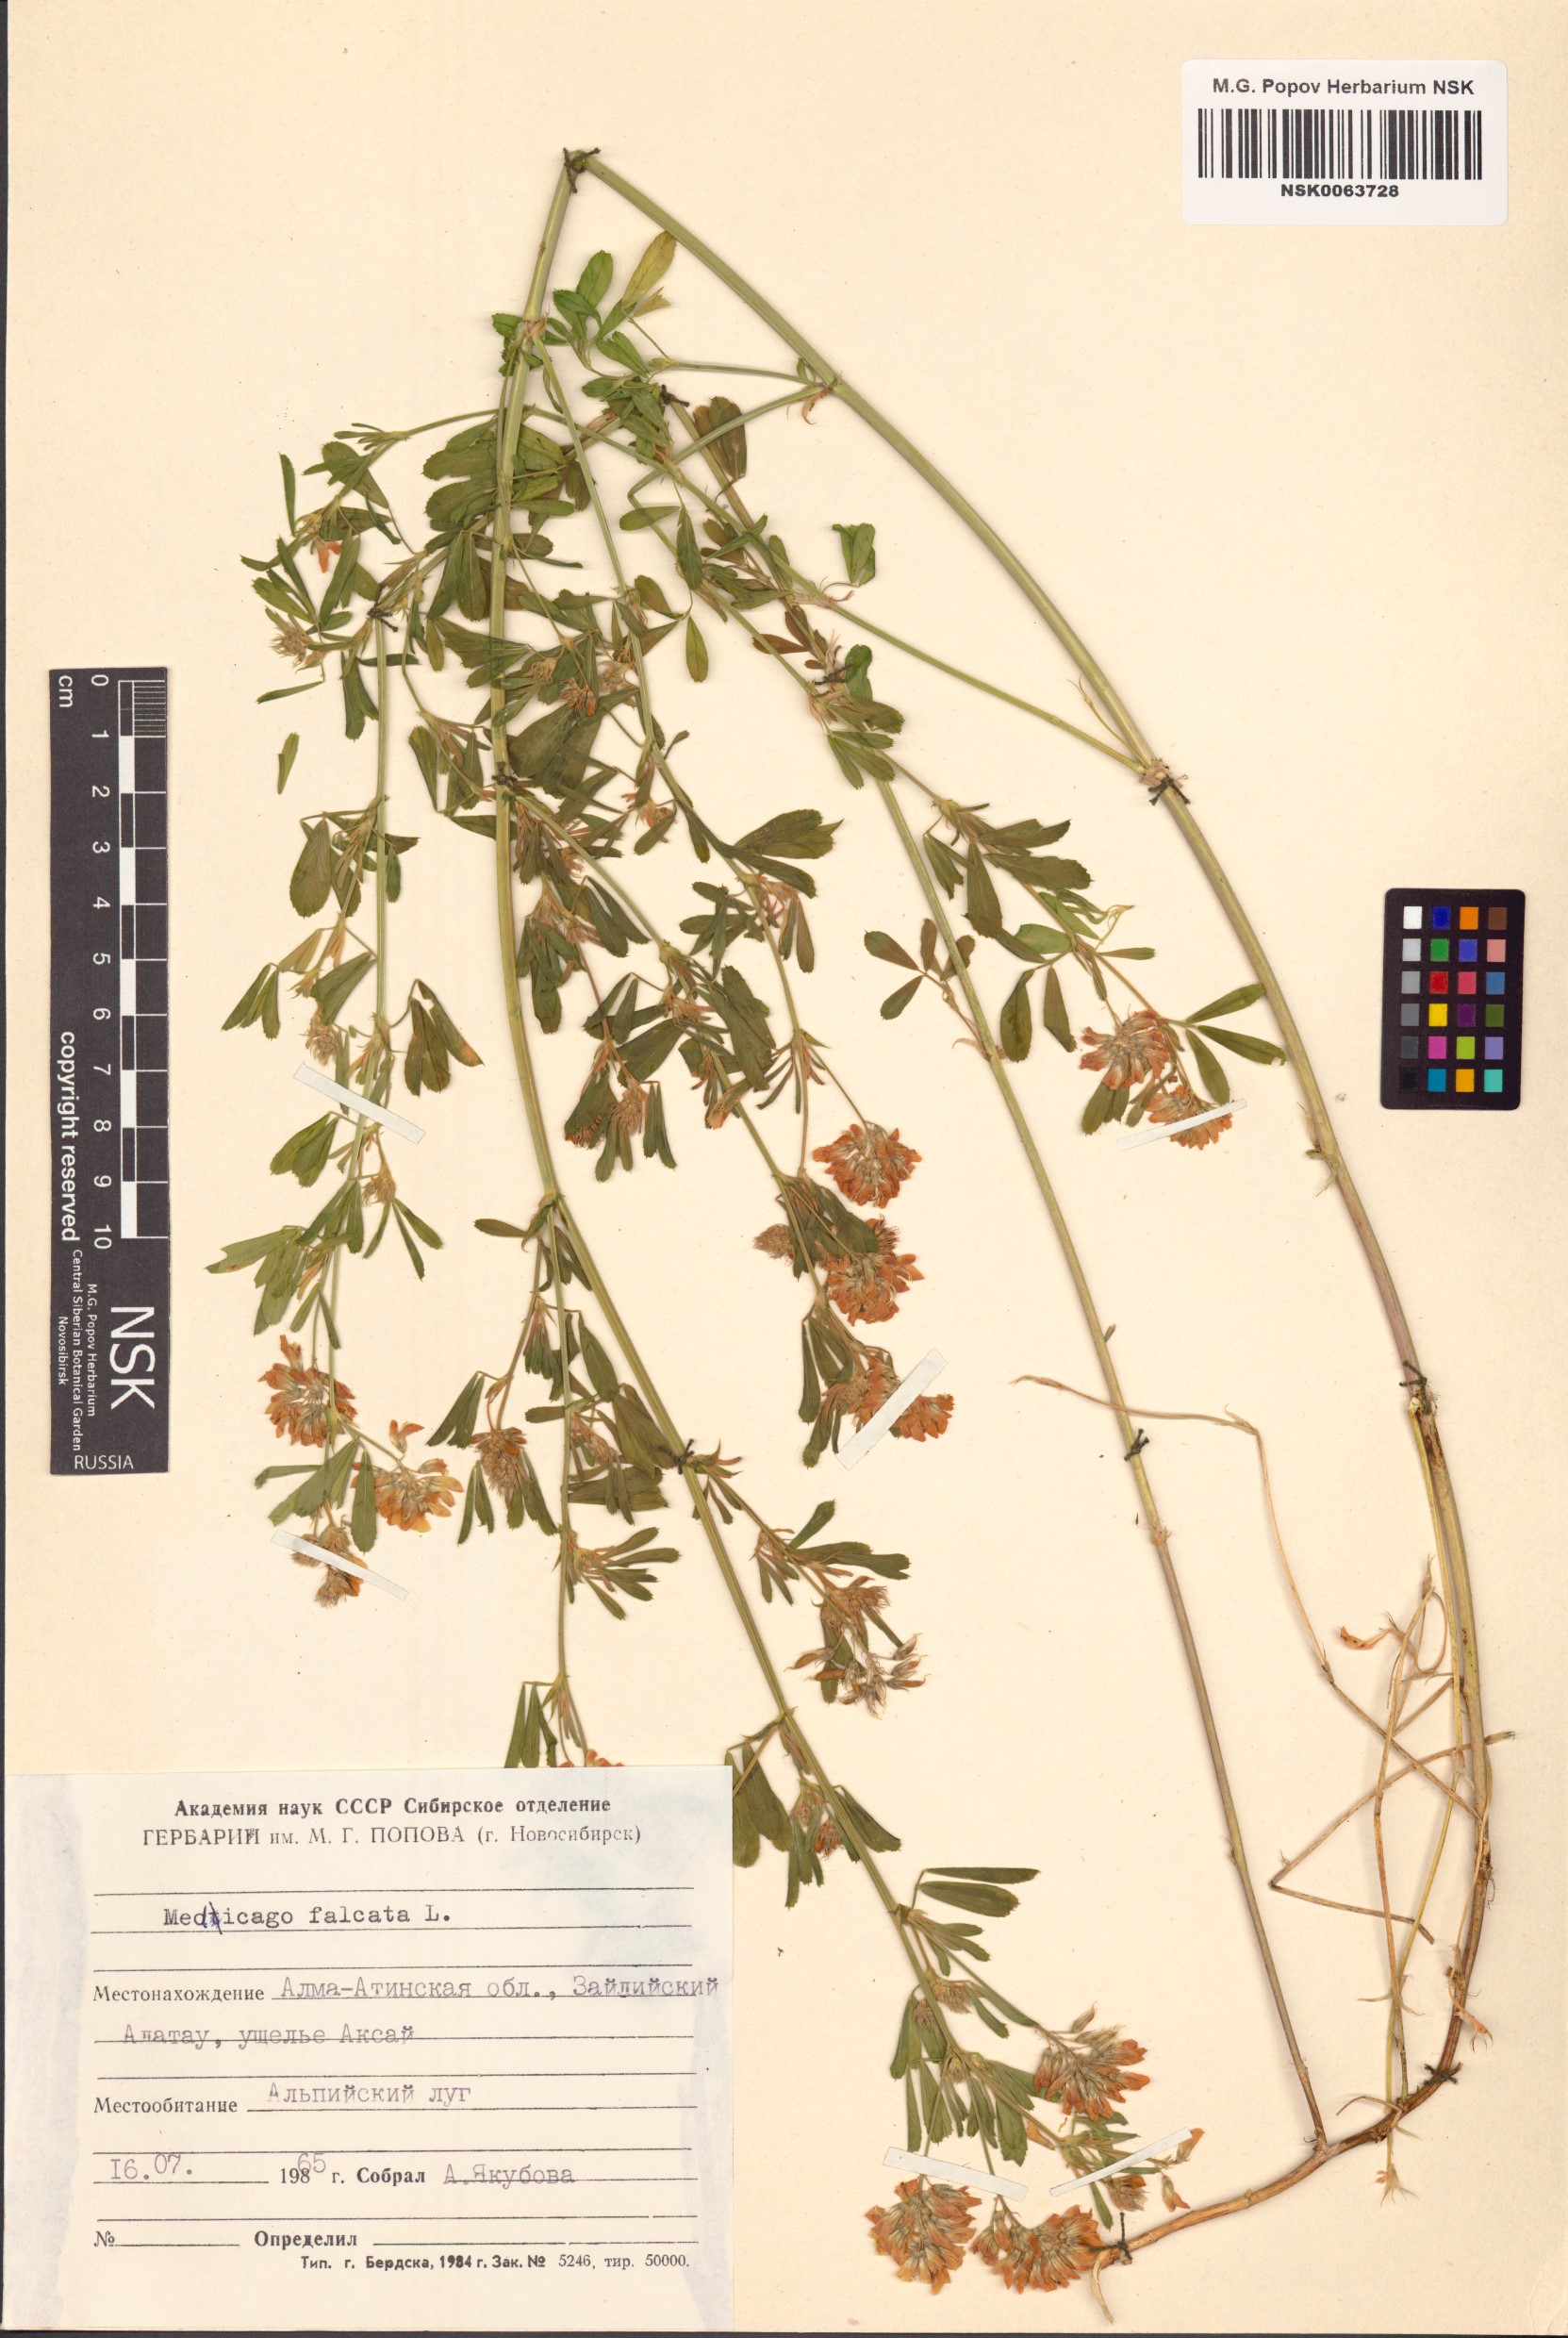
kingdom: Plantae
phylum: Tracheophyta
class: Magnoliopsida
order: Fabales
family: Fabaceae
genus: Medicago
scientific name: Medicago falcata
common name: Sickle medick
